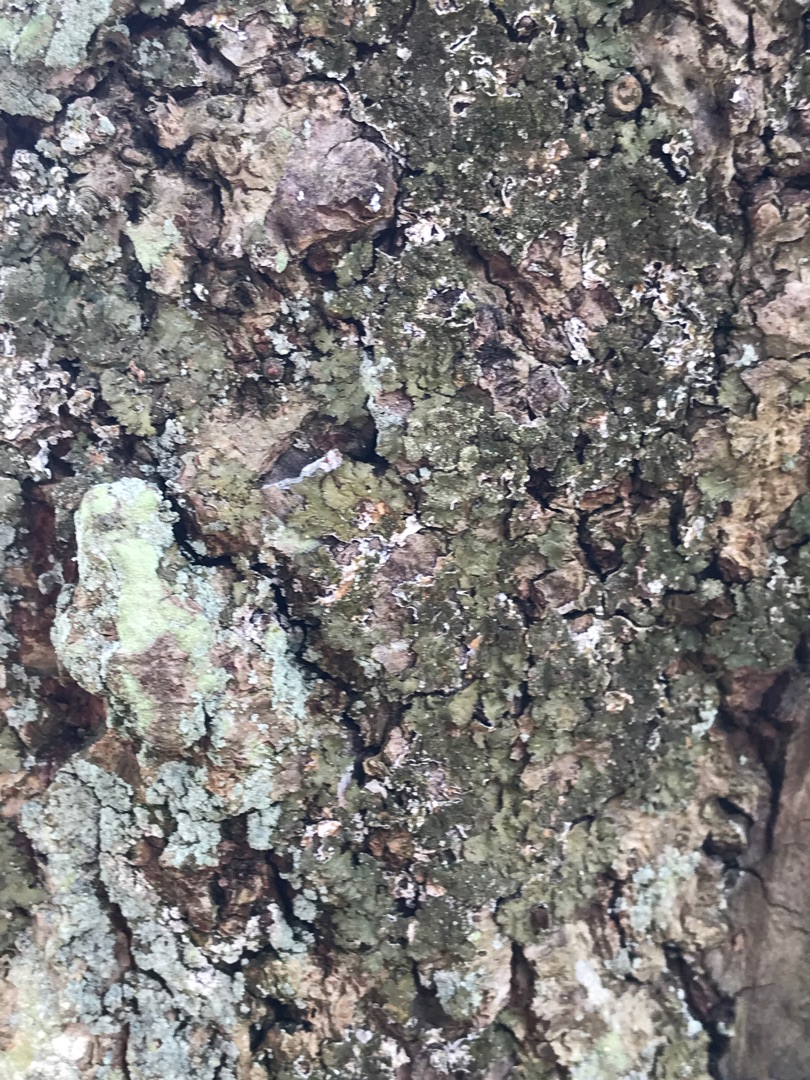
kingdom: Fungi
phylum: Ascomycota
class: Lecanoromycetes
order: Lecanorales
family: Parmeliaceae
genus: Melanelixia
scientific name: Melanelixia glabratula
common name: Glinsende skållav
